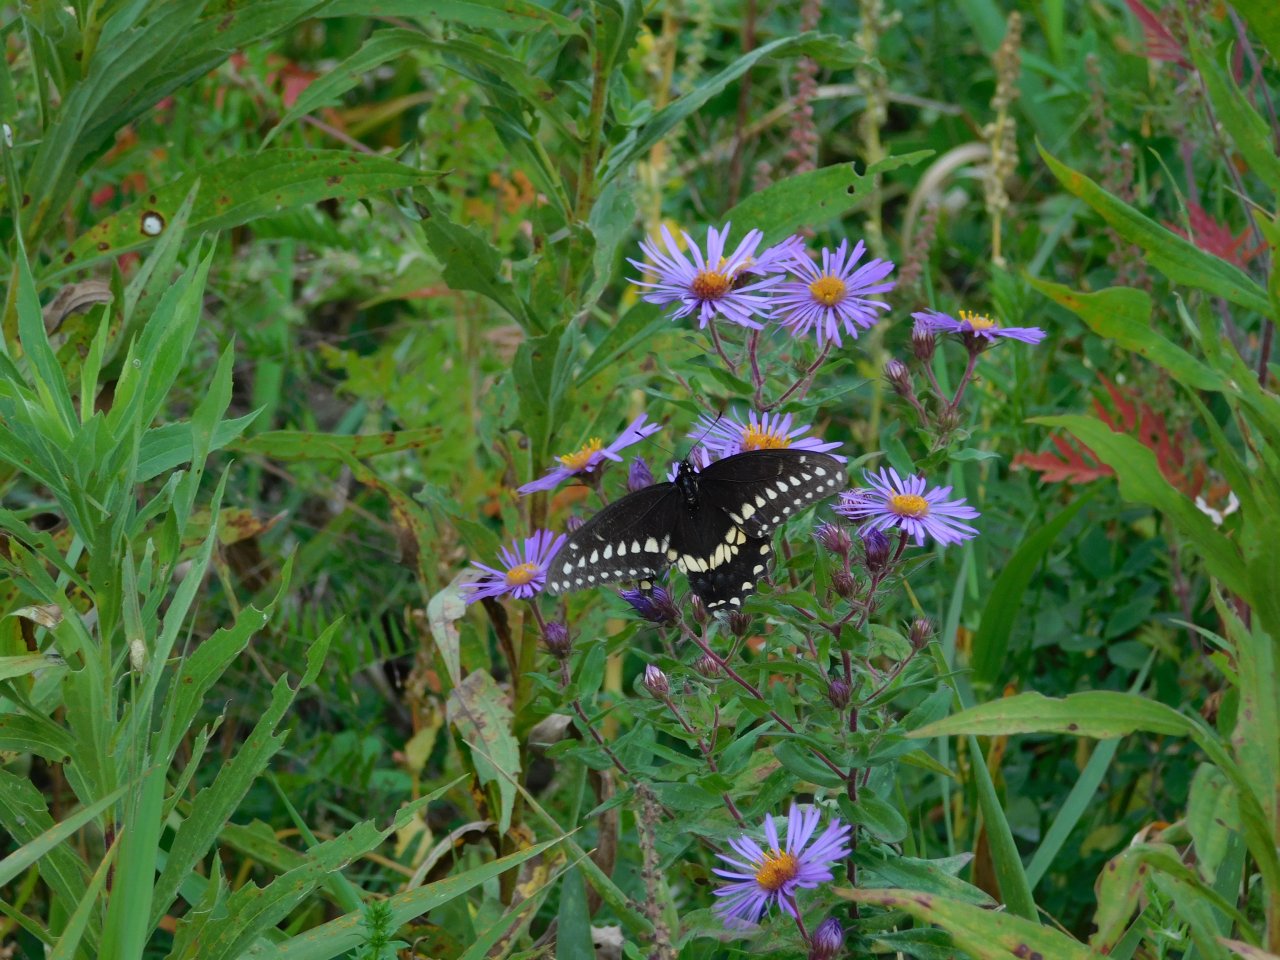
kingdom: Animalia
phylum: Arthropoda
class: Insecta
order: Lepidoptera
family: Papilionidae
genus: Papilio
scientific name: Papilio polyxenes
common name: Black Swallowtail
